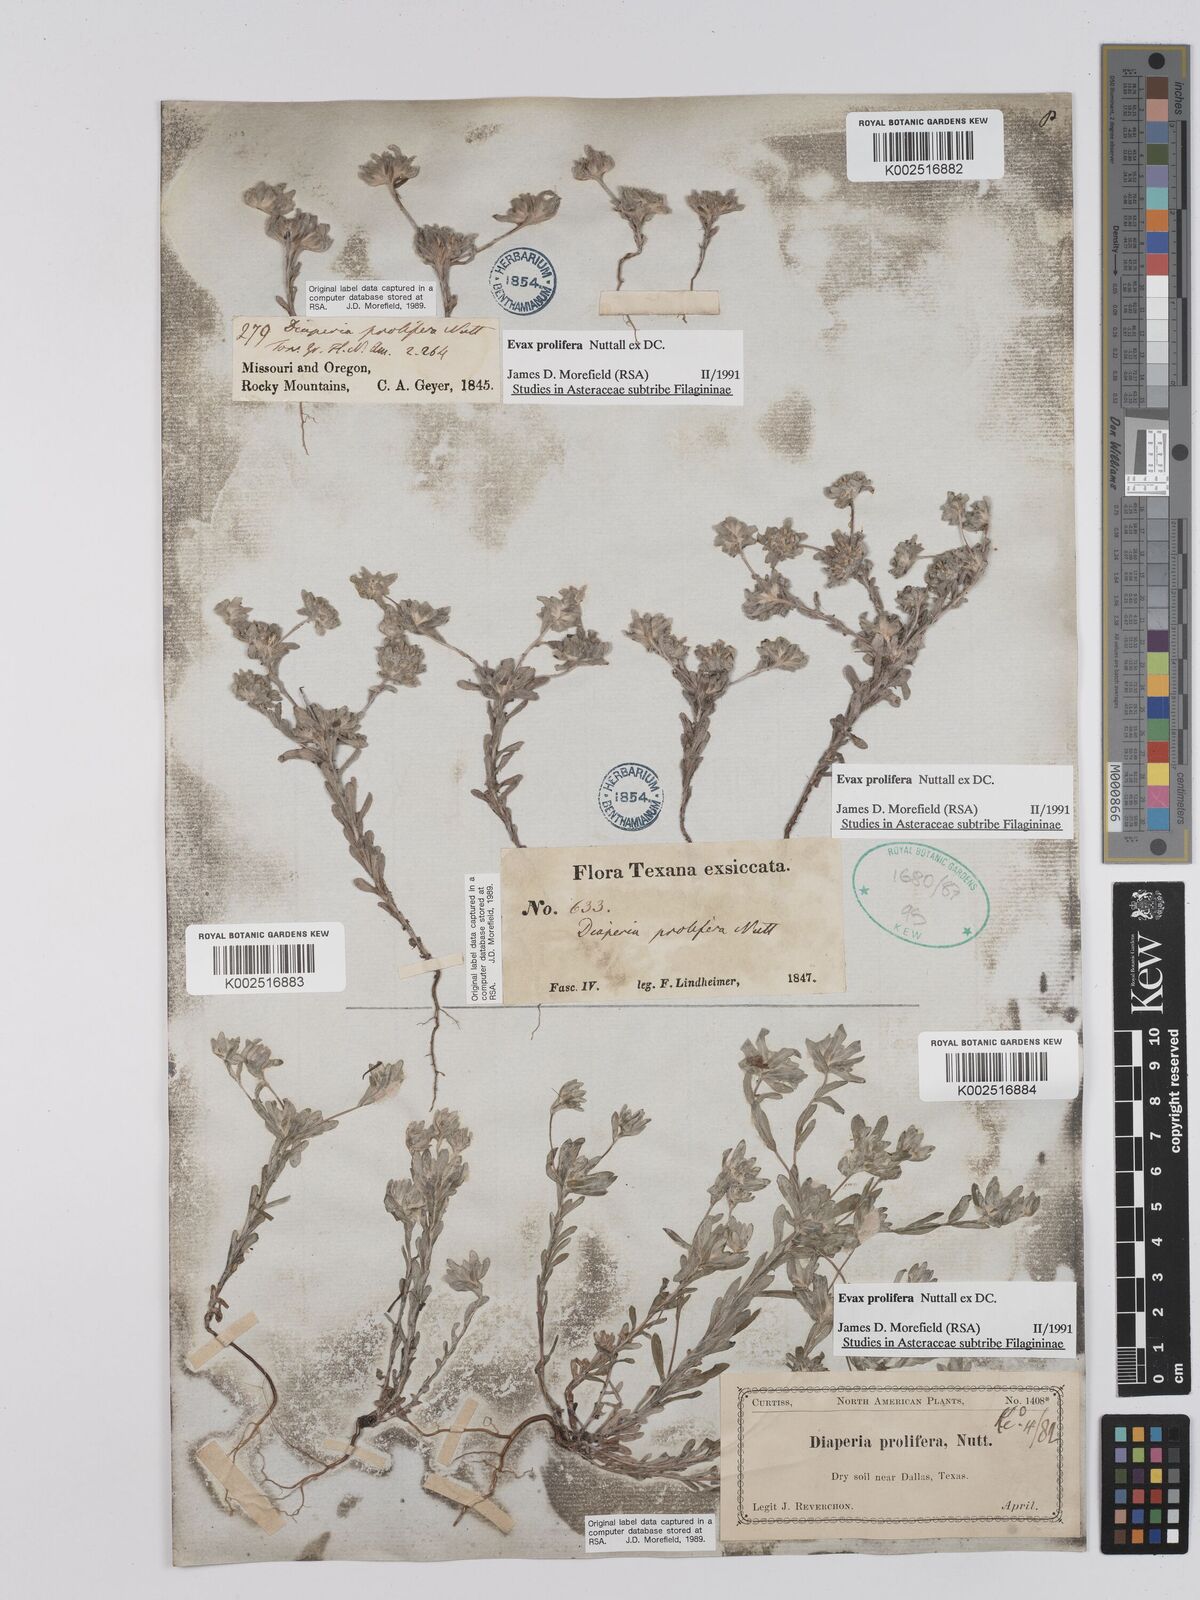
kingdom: Plantae
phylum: Tracheophyta
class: Magnoliopsida
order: Asterales
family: Asteraceae
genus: Diaperia
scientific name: Diaperia prolifera
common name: Big-head rabbit-tobacco
